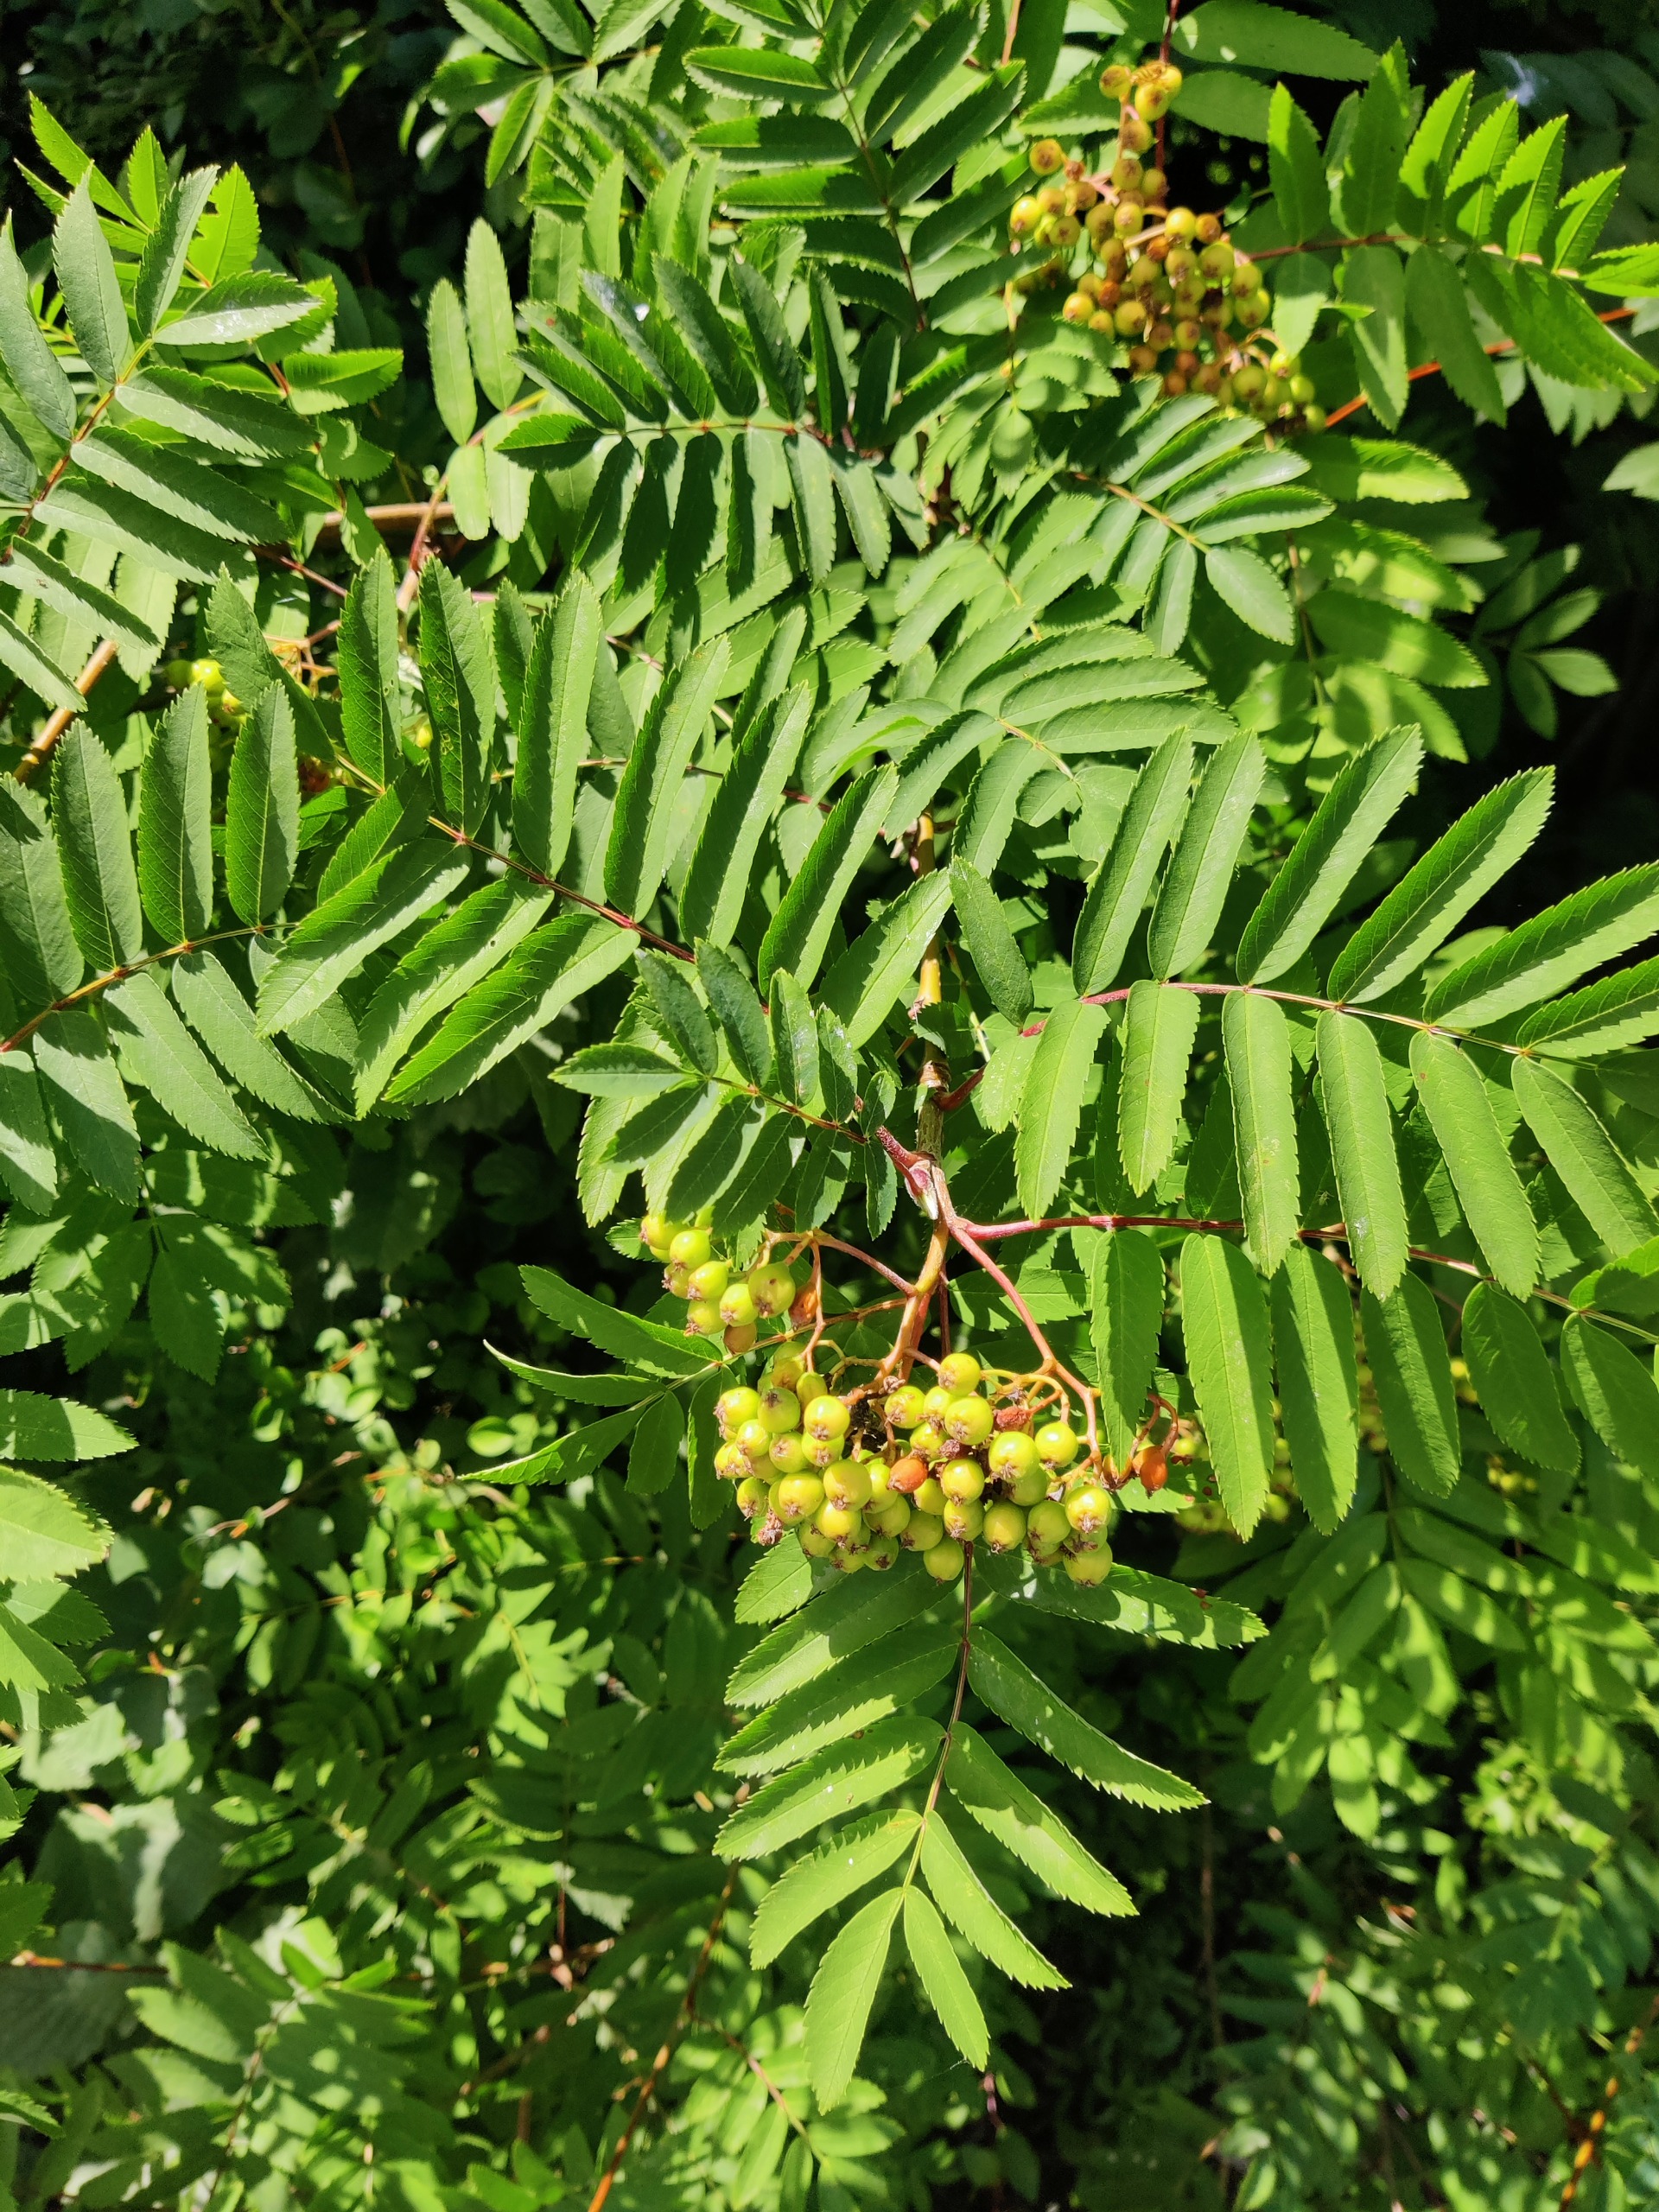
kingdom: Plantae
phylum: Tracheophyta
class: Magnoliopsida
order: Rosales
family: Rosaceae
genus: Sorbus
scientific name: Sorbus aucuparia
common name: Almindelig røn
